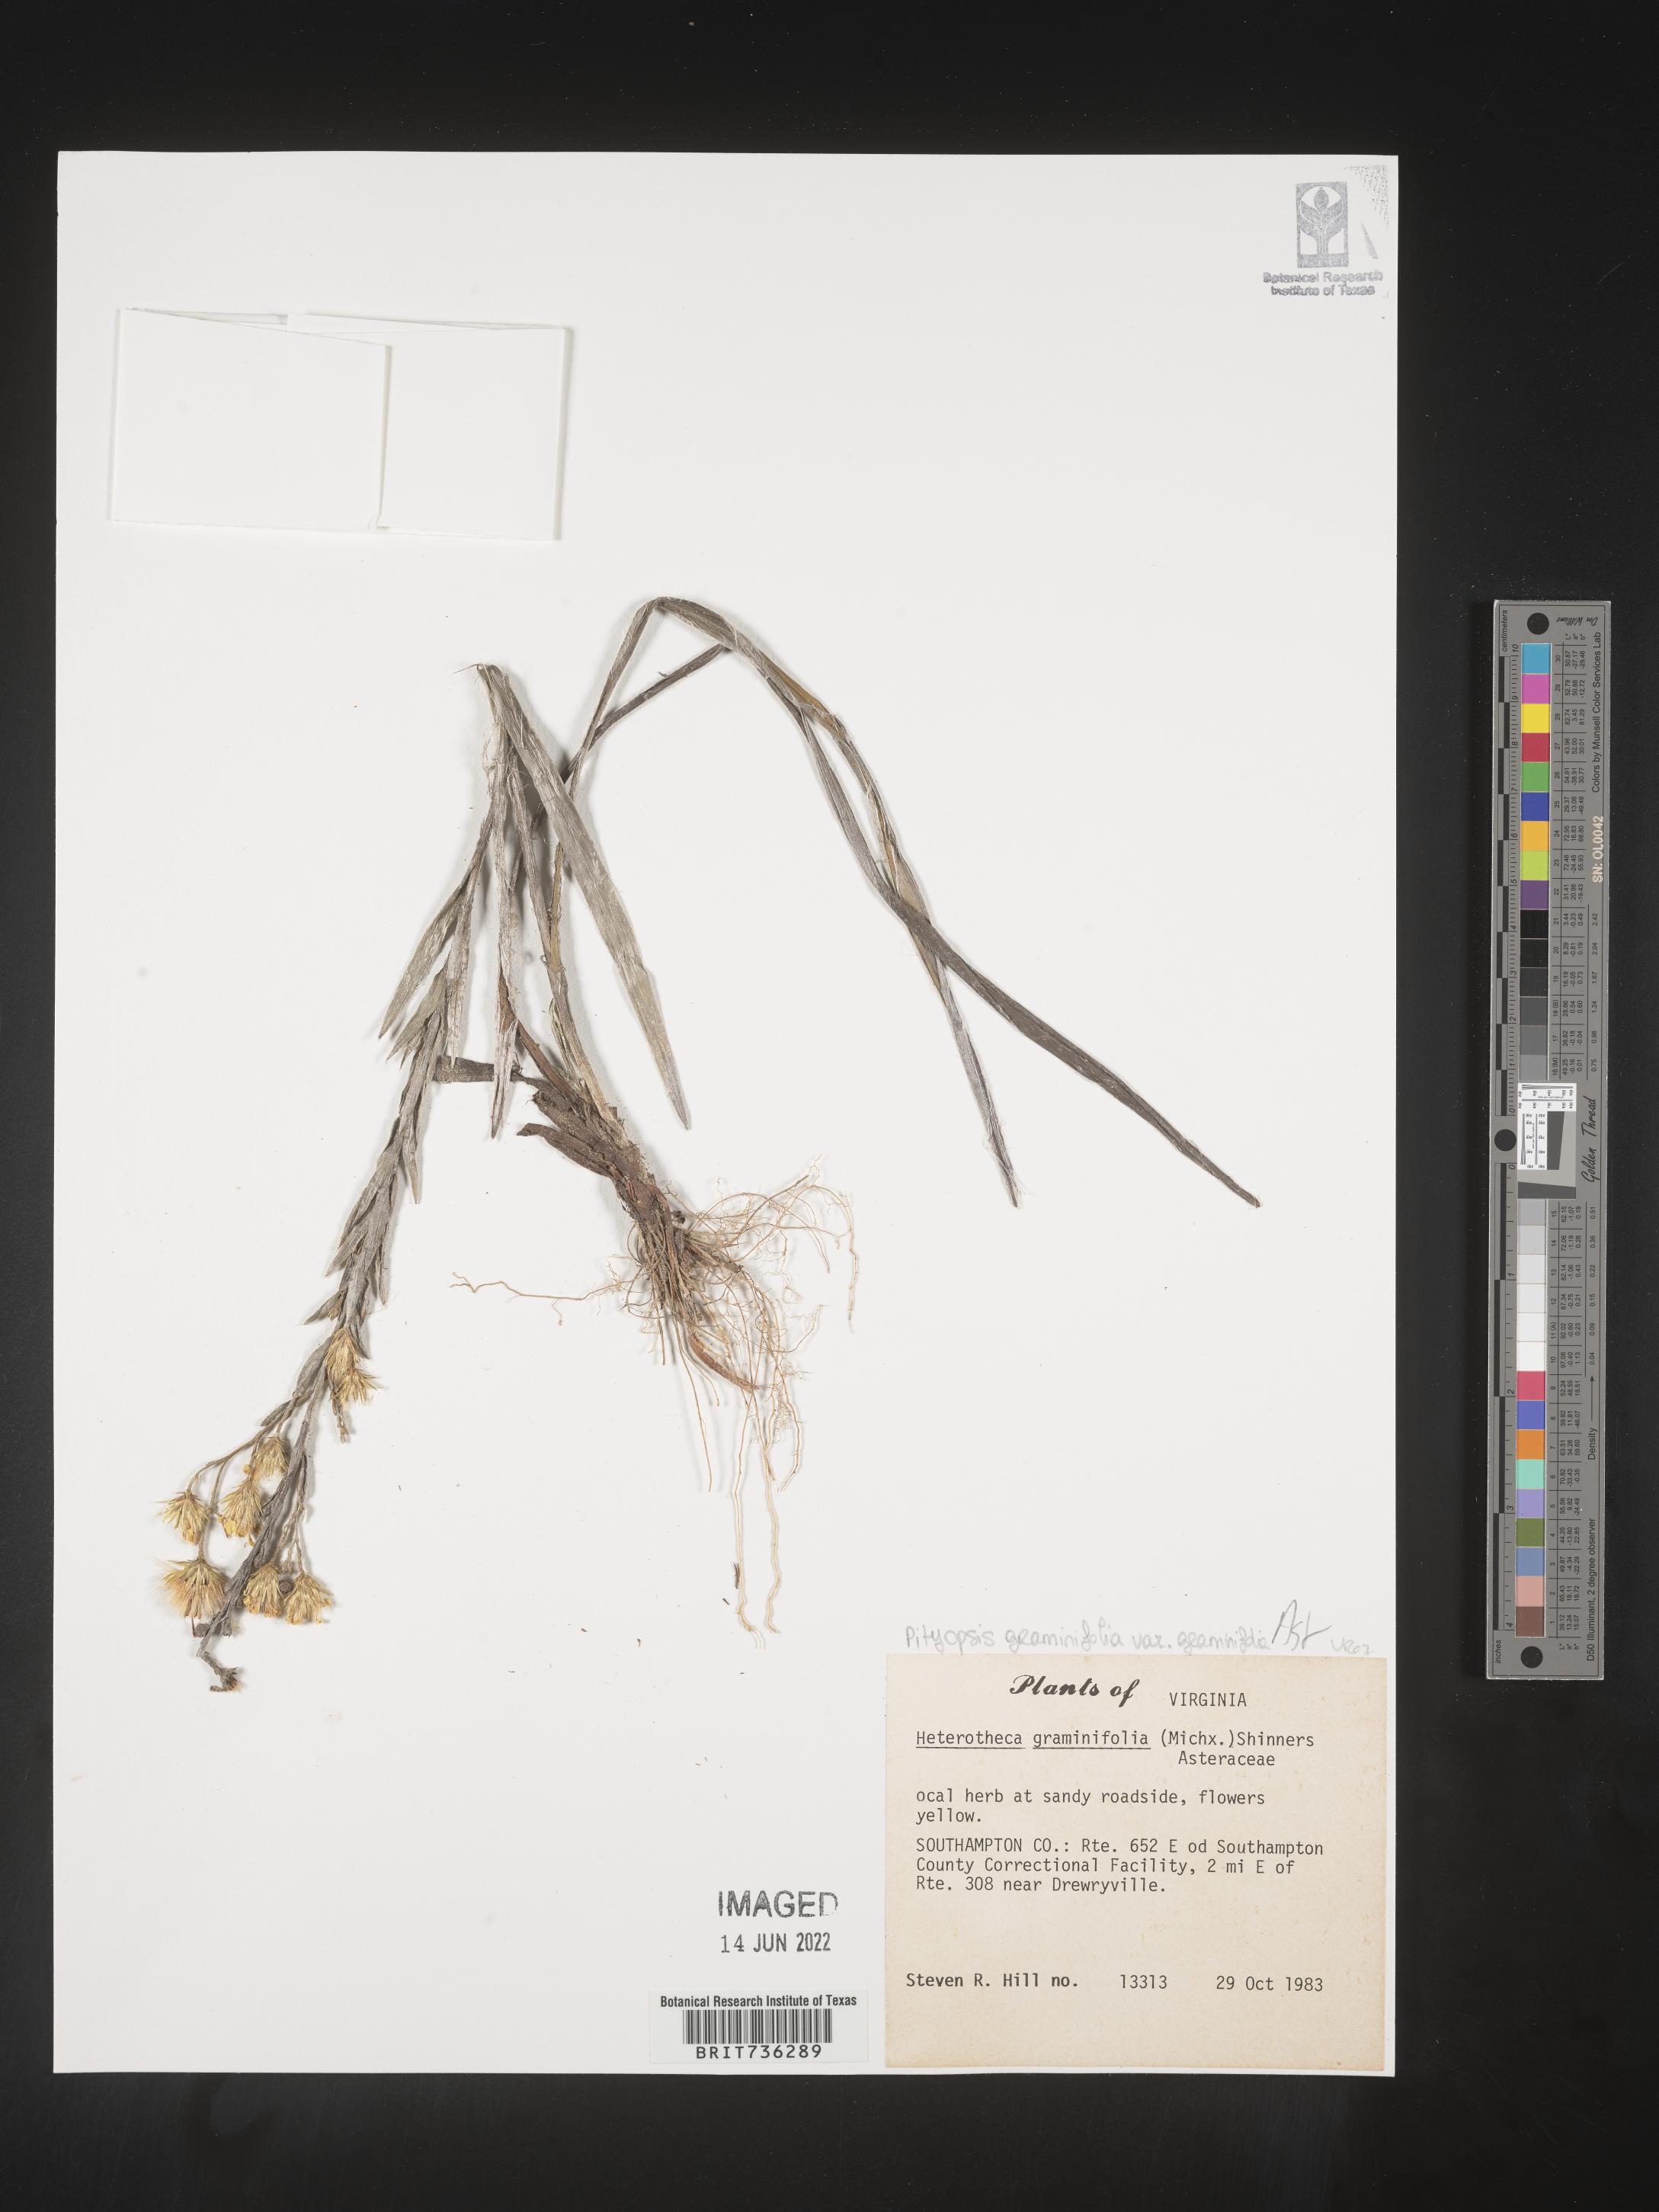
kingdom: Plantae
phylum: Tracheophyta
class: Magnoliopsida
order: Asterales
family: Asteraceae
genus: Pityopsis
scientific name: Pityopsis graminifolia
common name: Grass-leaf golden-aster
